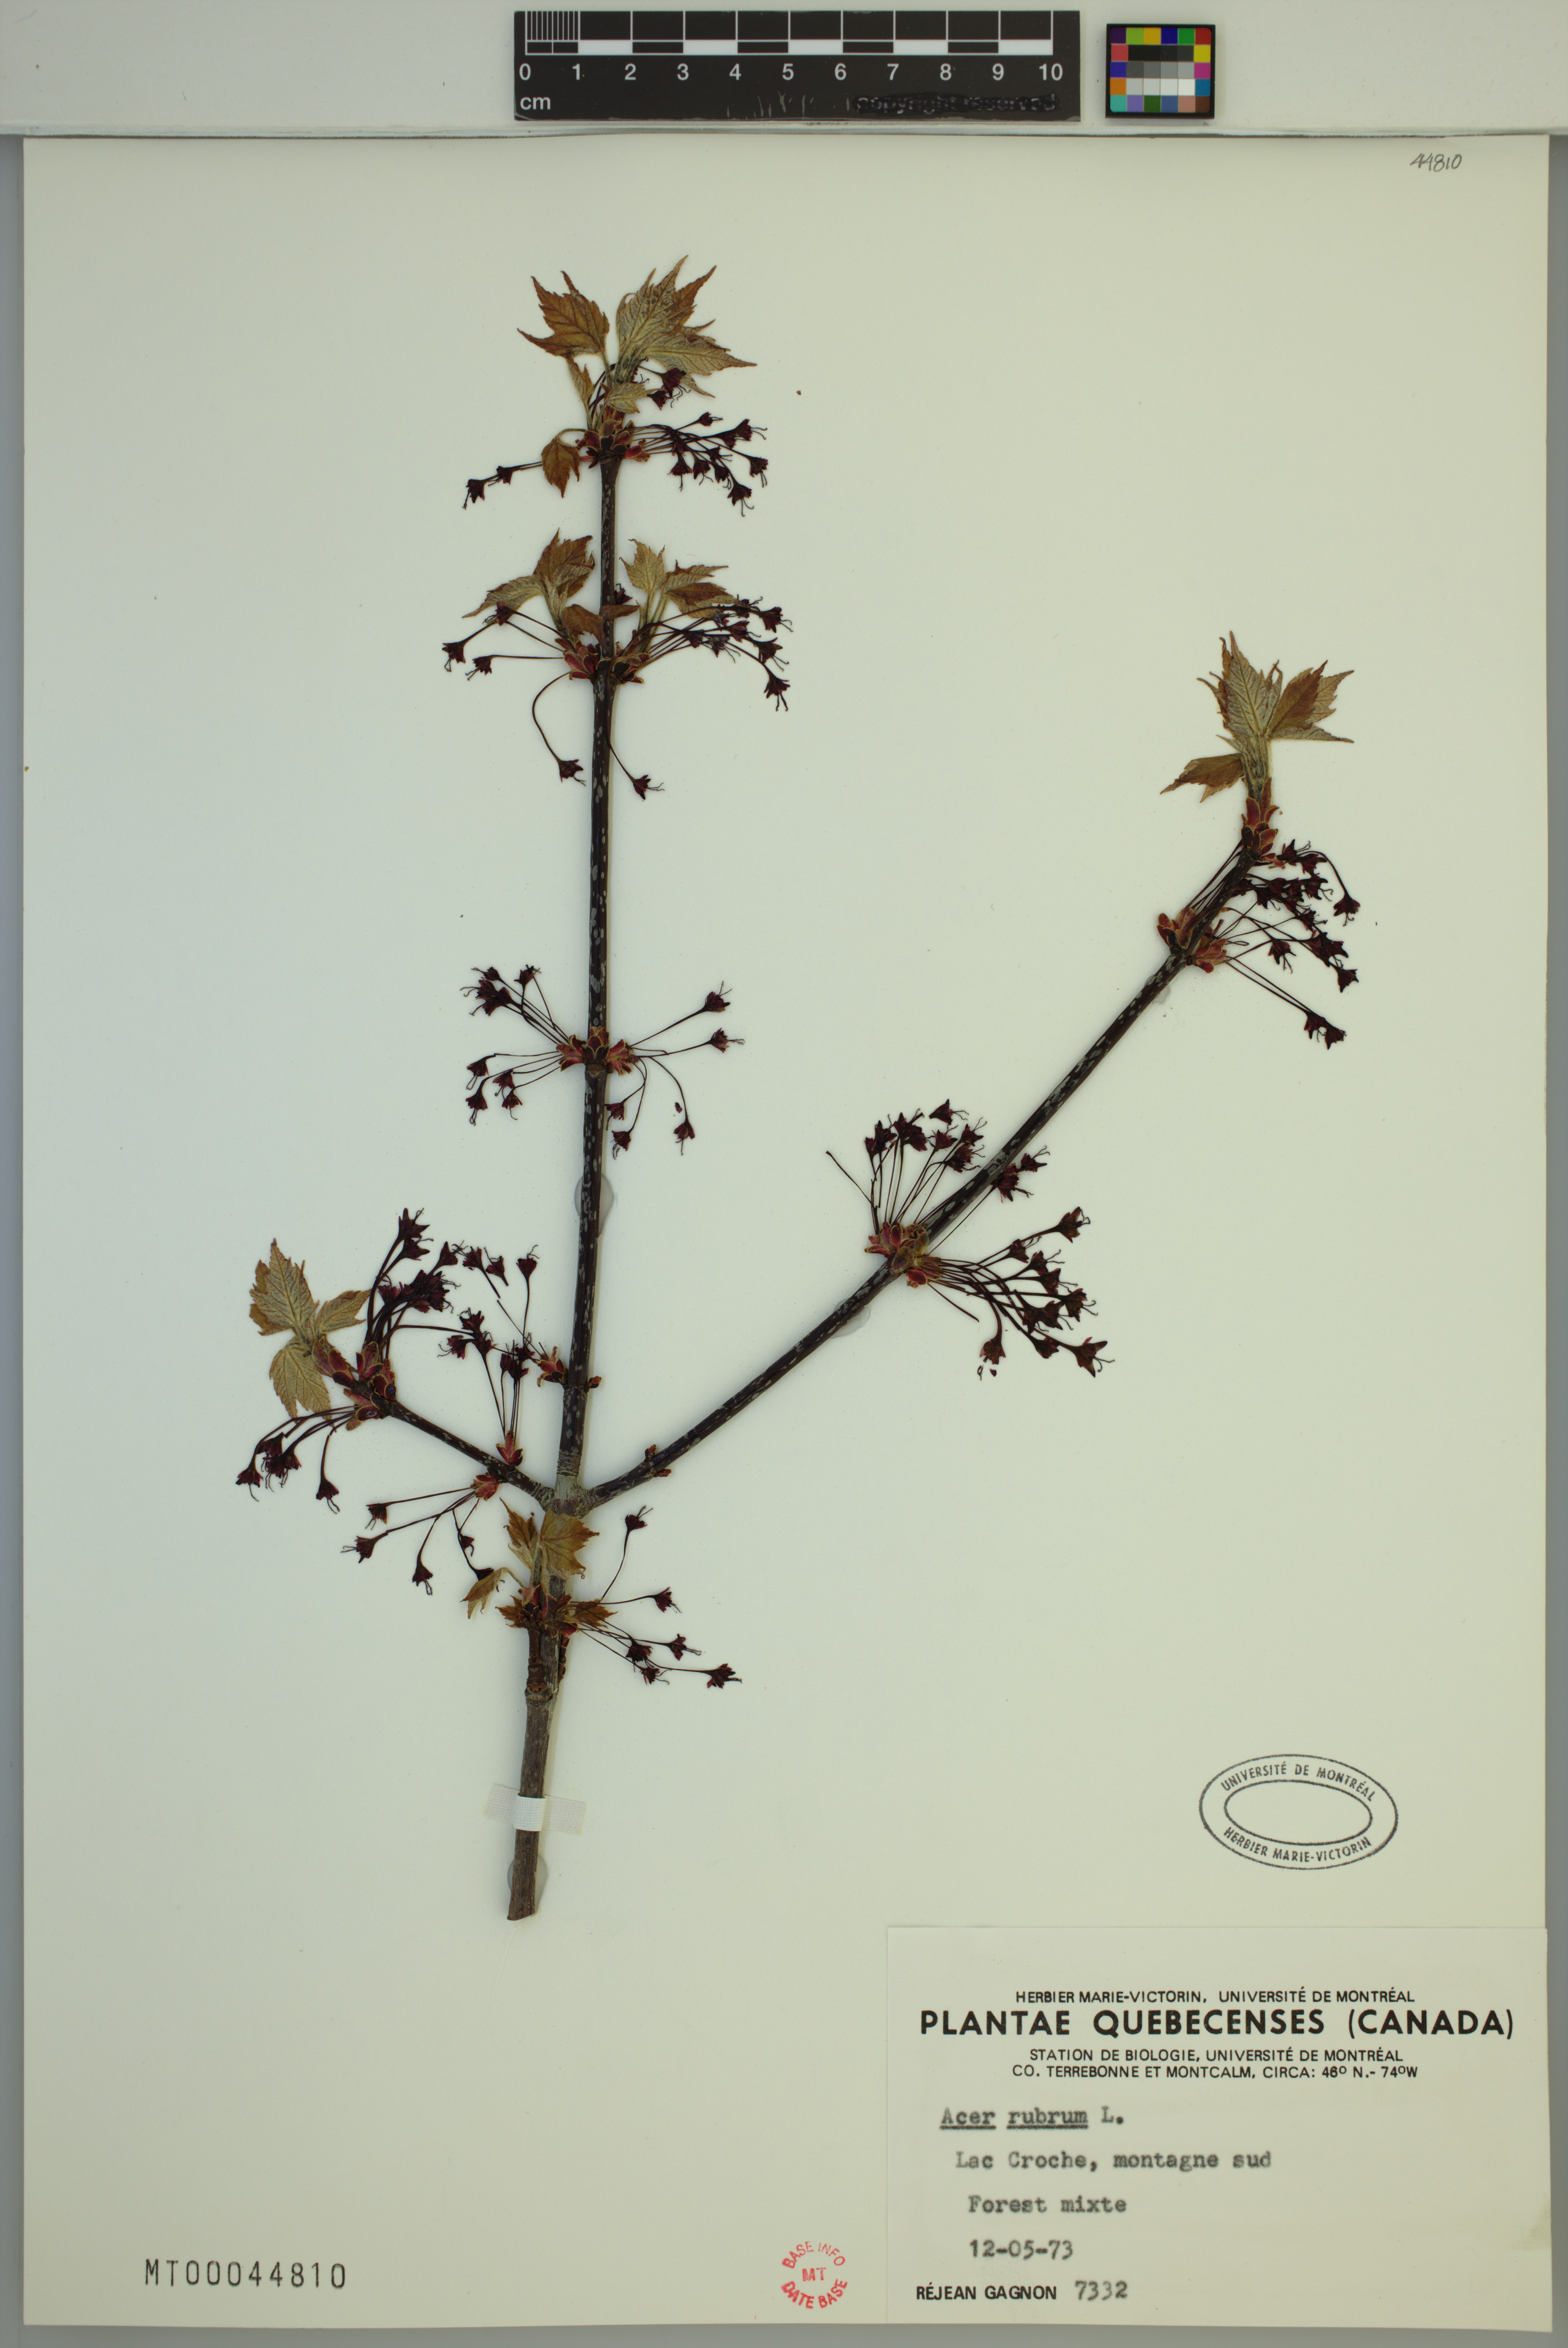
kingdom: Plantae
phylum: Tracheophyta
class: Magnoliopsida
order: Sapindales
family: Sapindaceae
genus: Acer
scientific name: Acer rubrum
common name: Red maple
